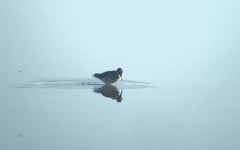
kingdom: Animalia
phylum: Chordata
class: Aves
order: Charadriiformes
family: Scolopacidae
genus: Calidris
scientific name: Calidris acuminata
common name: Sharp-tailed sandpiper
